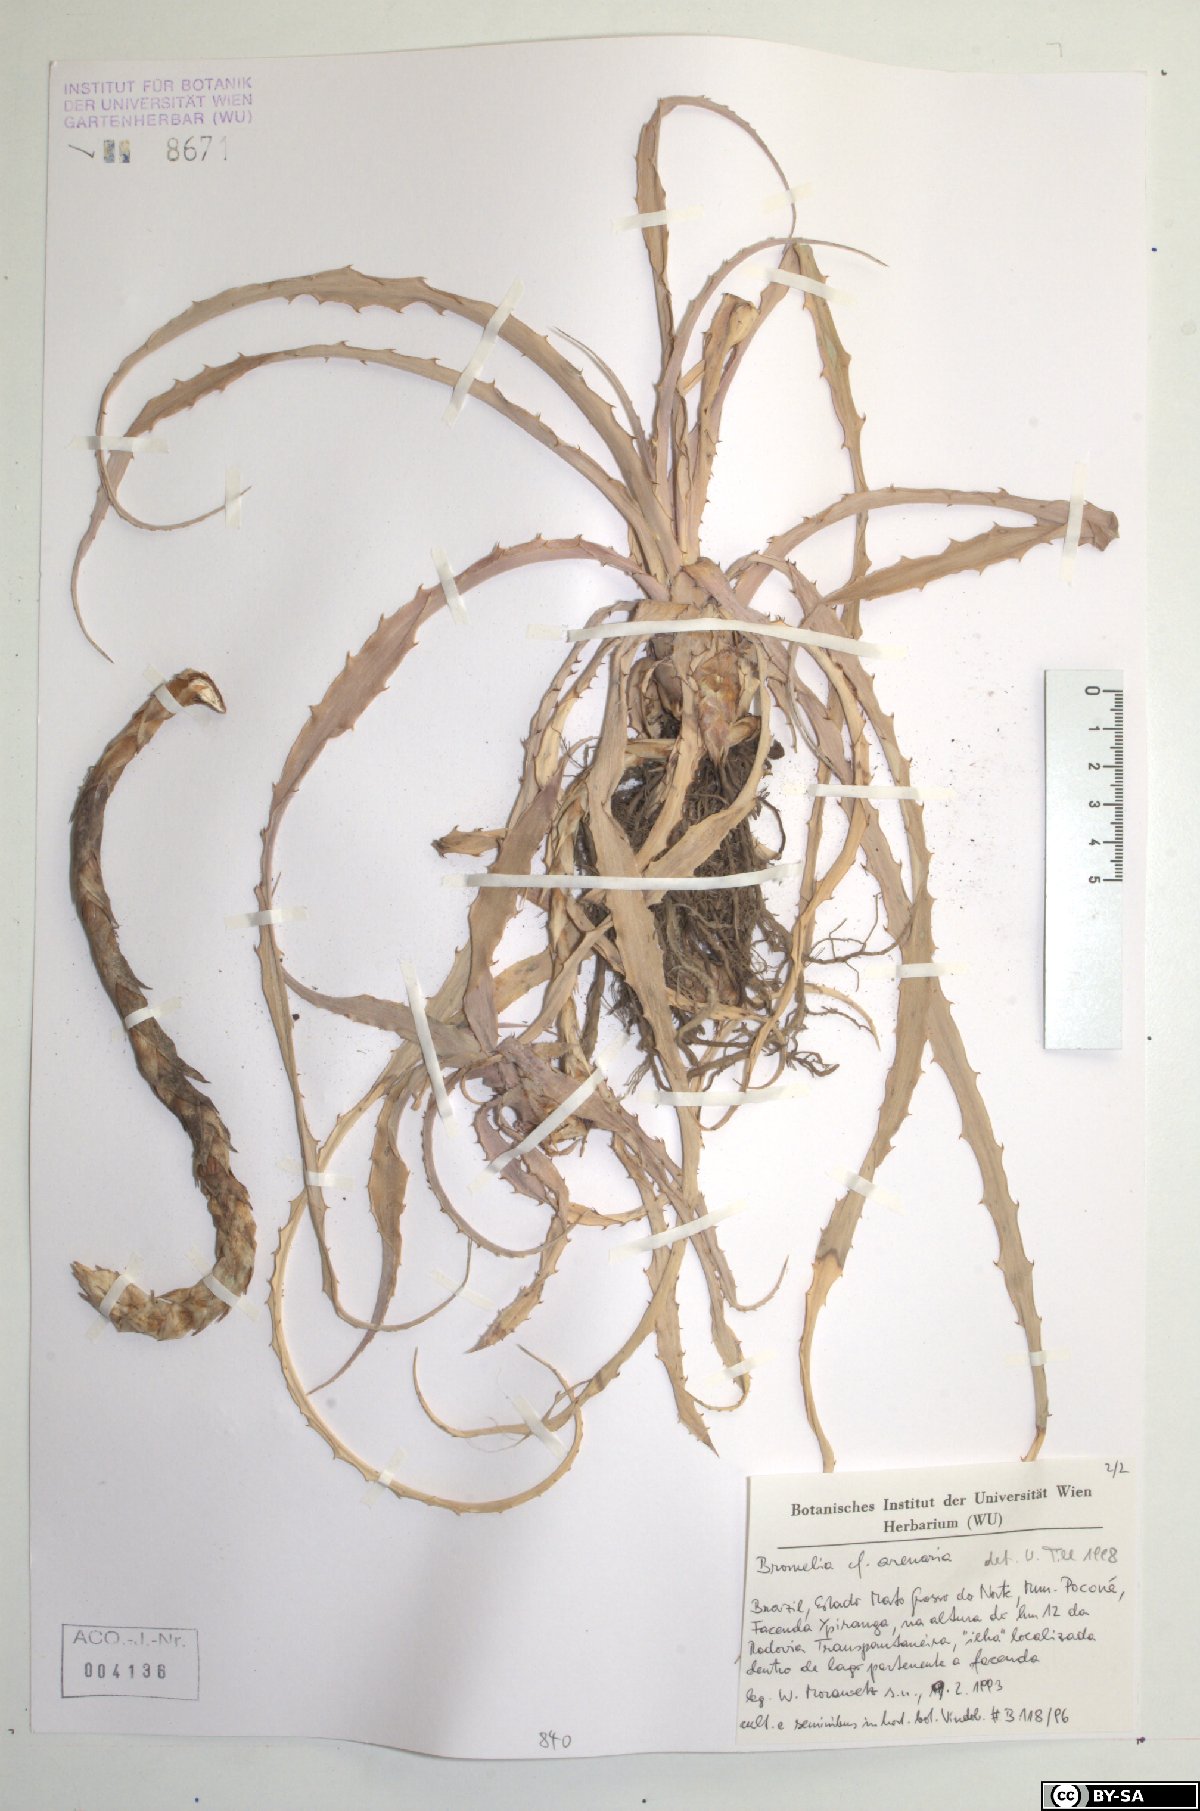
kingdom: Plantae
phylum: Tracheophyta
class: Liliopsida
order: Poales
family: Bromeliaceae
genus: Bromelia
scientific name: Bromelia arenaria
